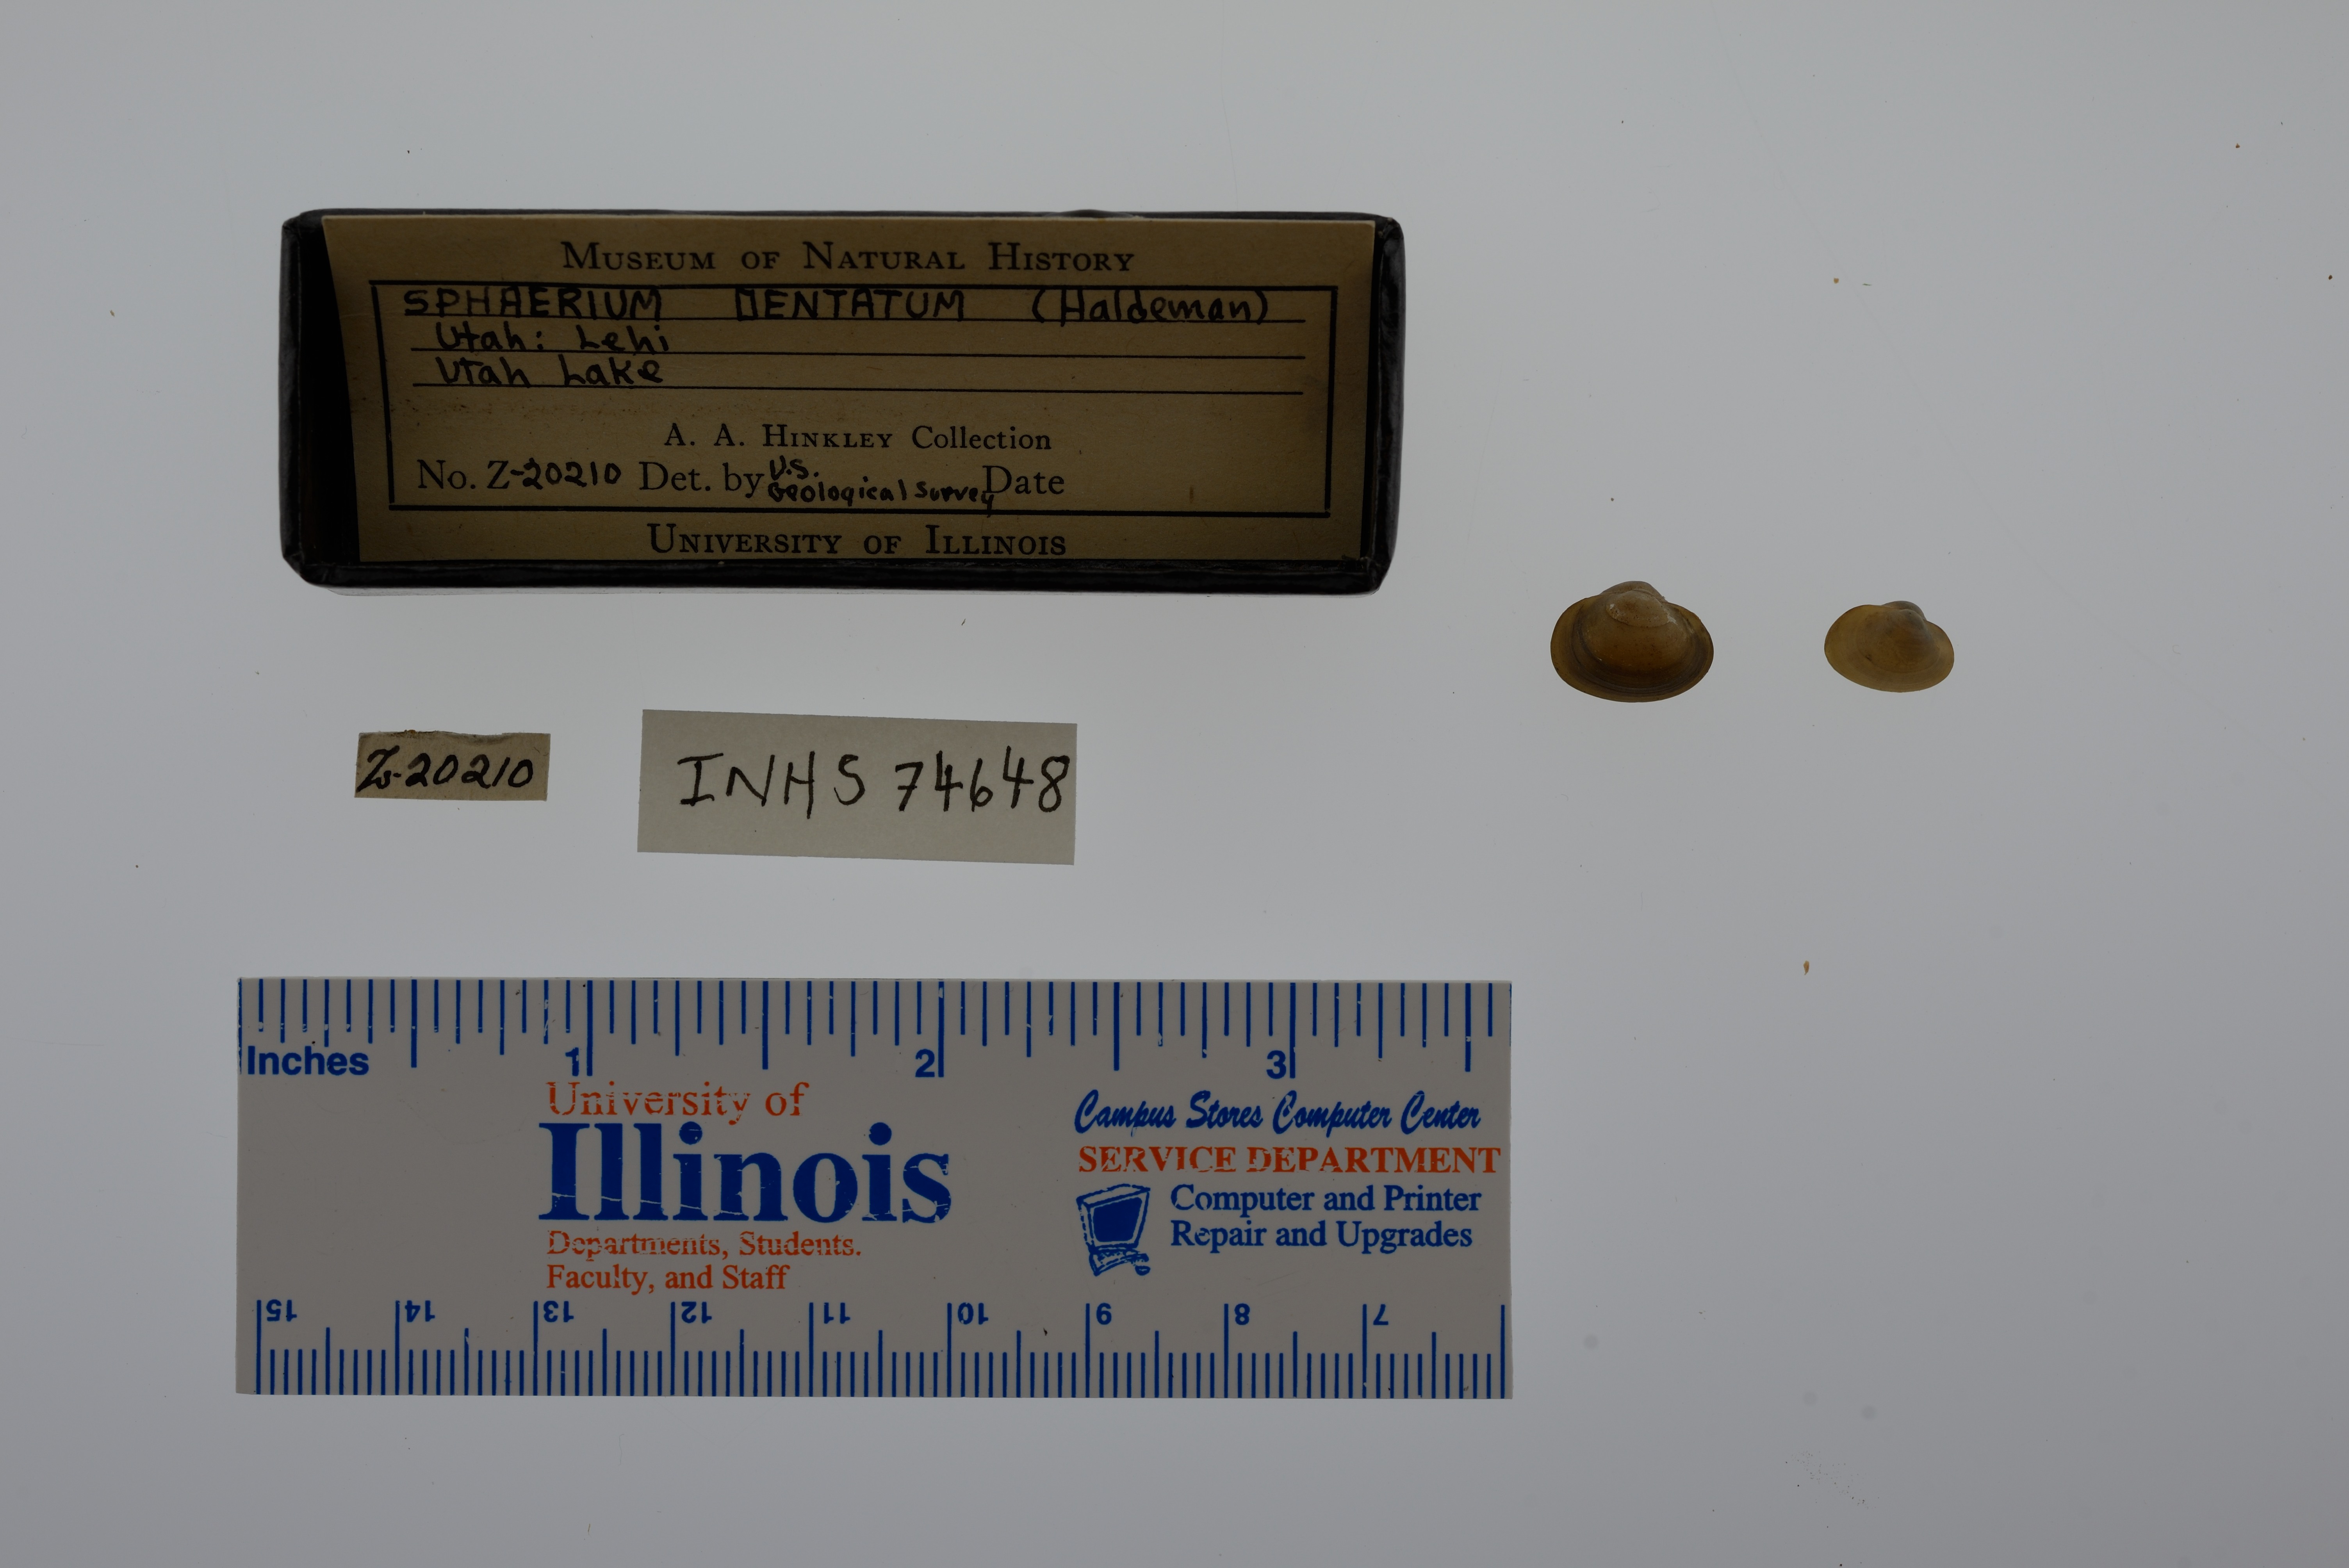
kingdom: Animalia
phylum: Mollusca
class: Bivalvia
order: Sphaeriida
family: Sphaeriidae
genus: Sphaerium
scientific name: Sphaerium striatinum
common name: Striated fingernailclam
